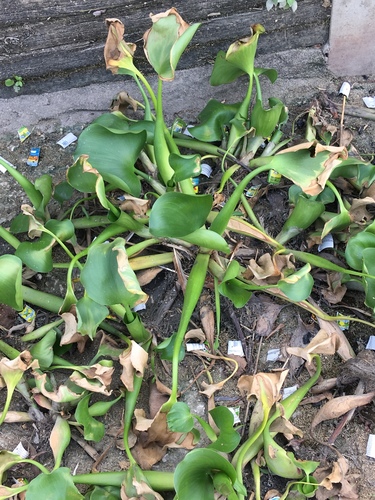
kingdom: Plantae
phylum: Tracheophyta
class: Liliopsida
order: Commelinales
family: Pontederiaceae
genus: Pontederia
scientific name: Pontederia crassipes
